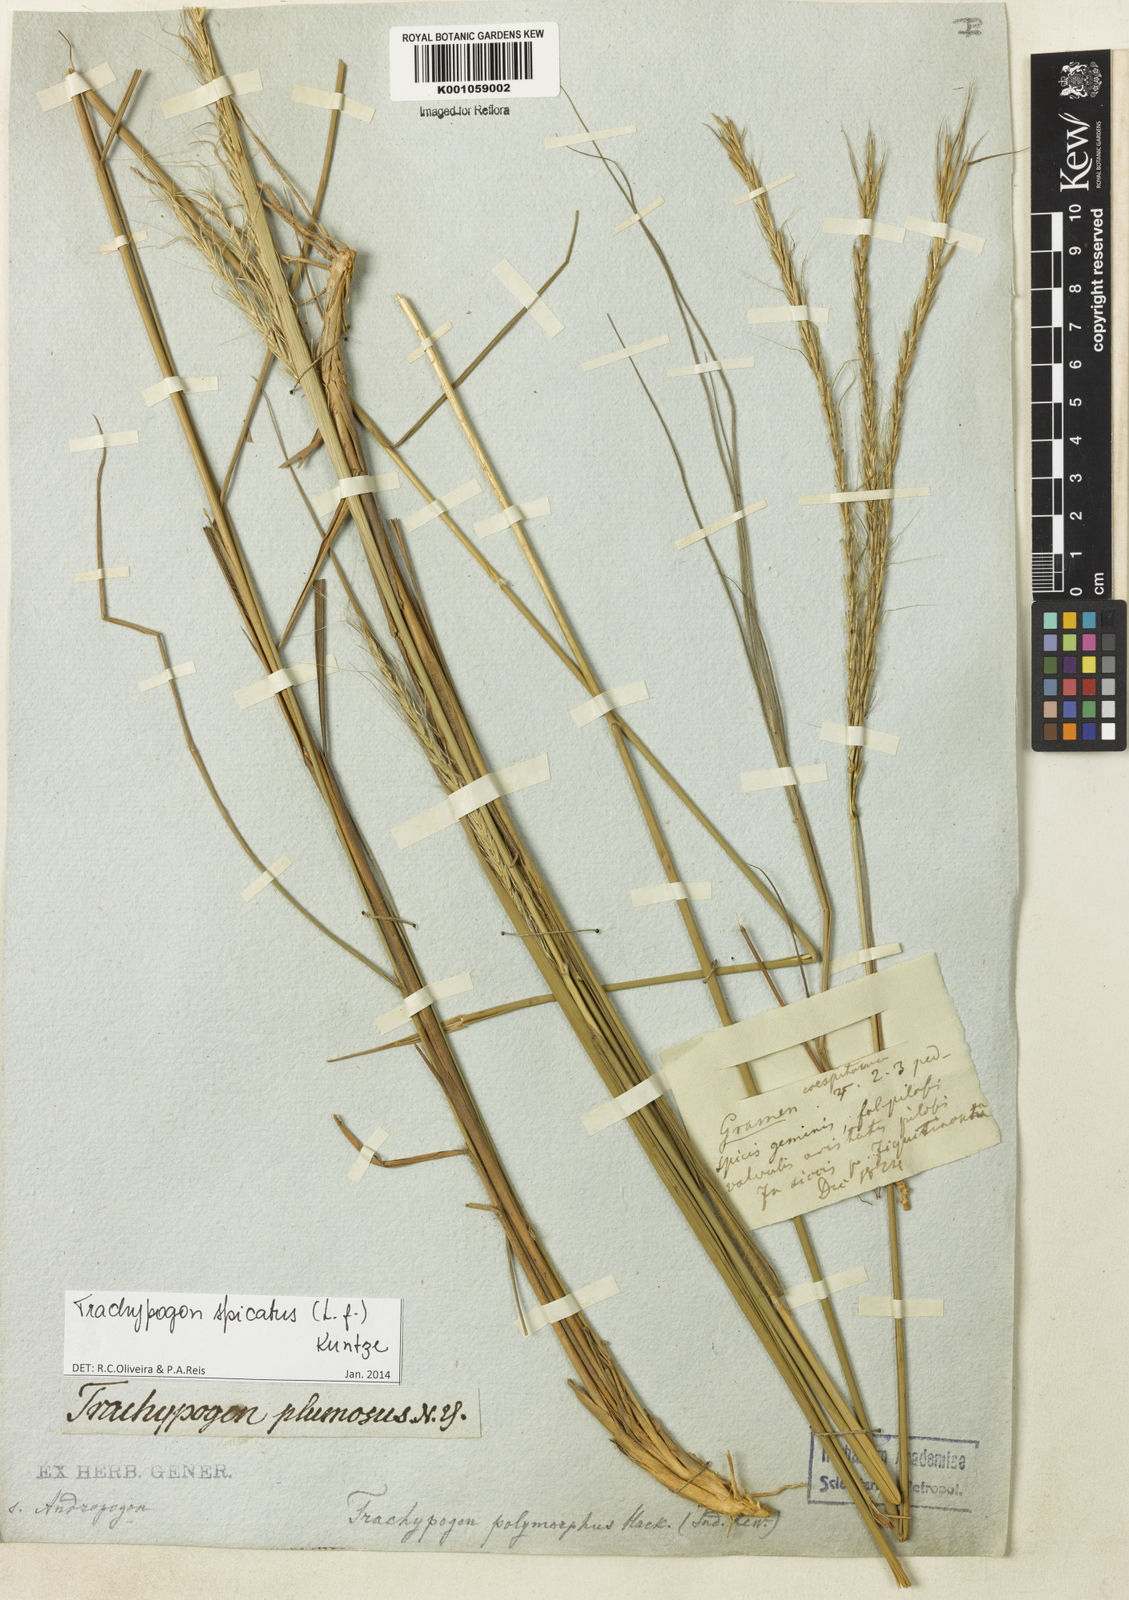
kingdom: Plantae
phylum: Tracheophyta
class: Liliopsida
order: Poales
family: Poaceae
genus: Trachypogon
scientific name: Trachypogon spicatus
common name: Crinkle-awn
